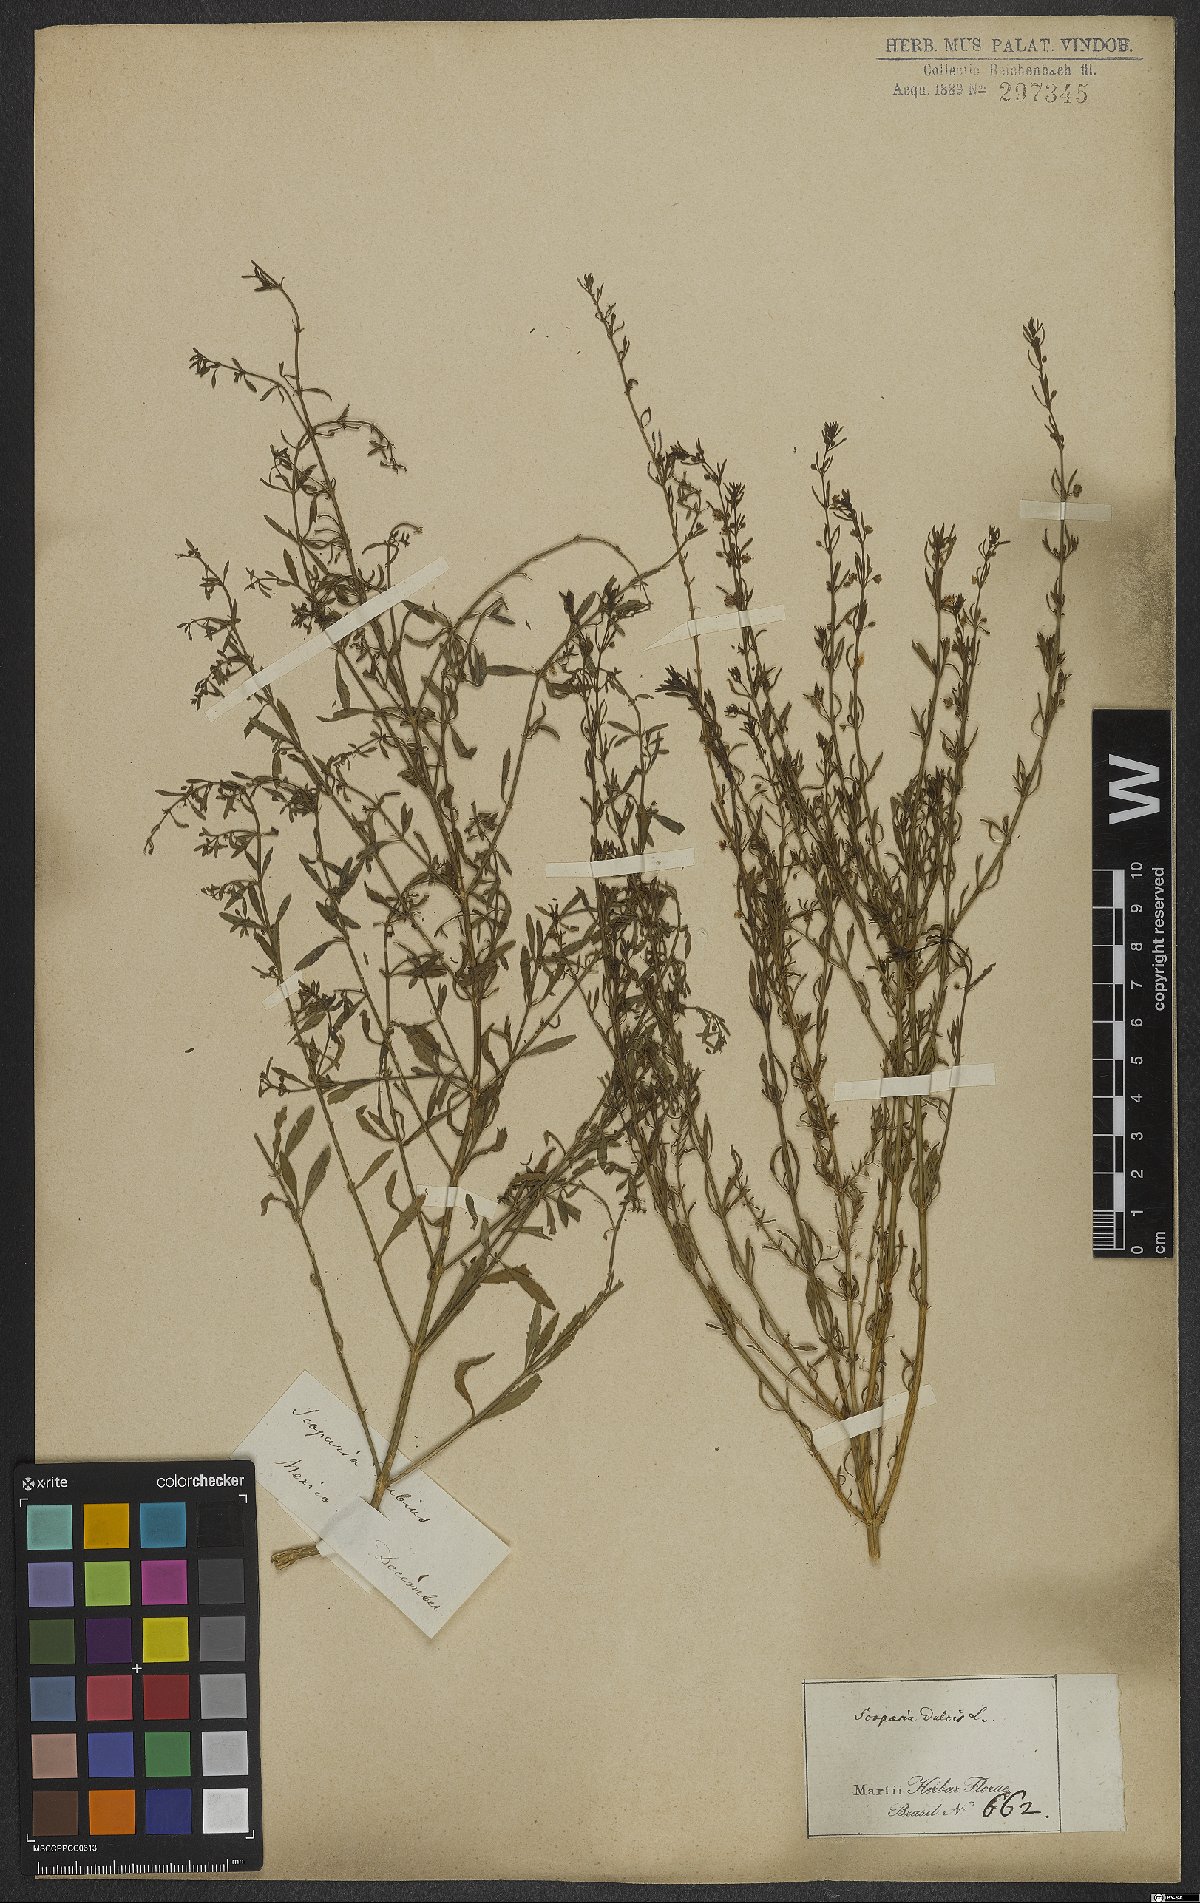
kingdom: Plantae
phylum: Tracheophyta
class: Magnoliopsida
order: Lamiales
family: Plantaginaceae
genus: Scoparia
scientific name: Scoparia dulcis
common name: Scoparia-weed
